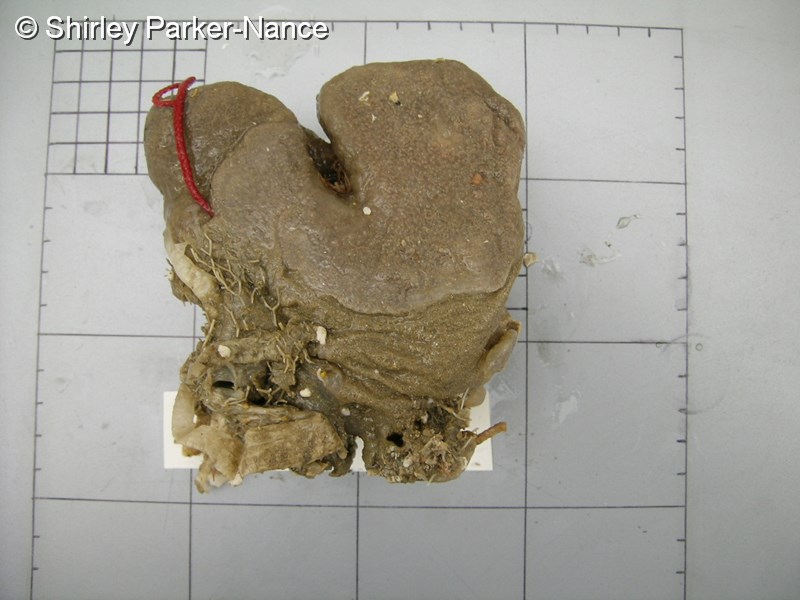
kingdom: Animalia
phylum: Chordata
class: Ascidiacea
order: Aplousobranchia
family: Polyclinidae
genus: Aplidium
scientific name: Aplidium flavolineatum
